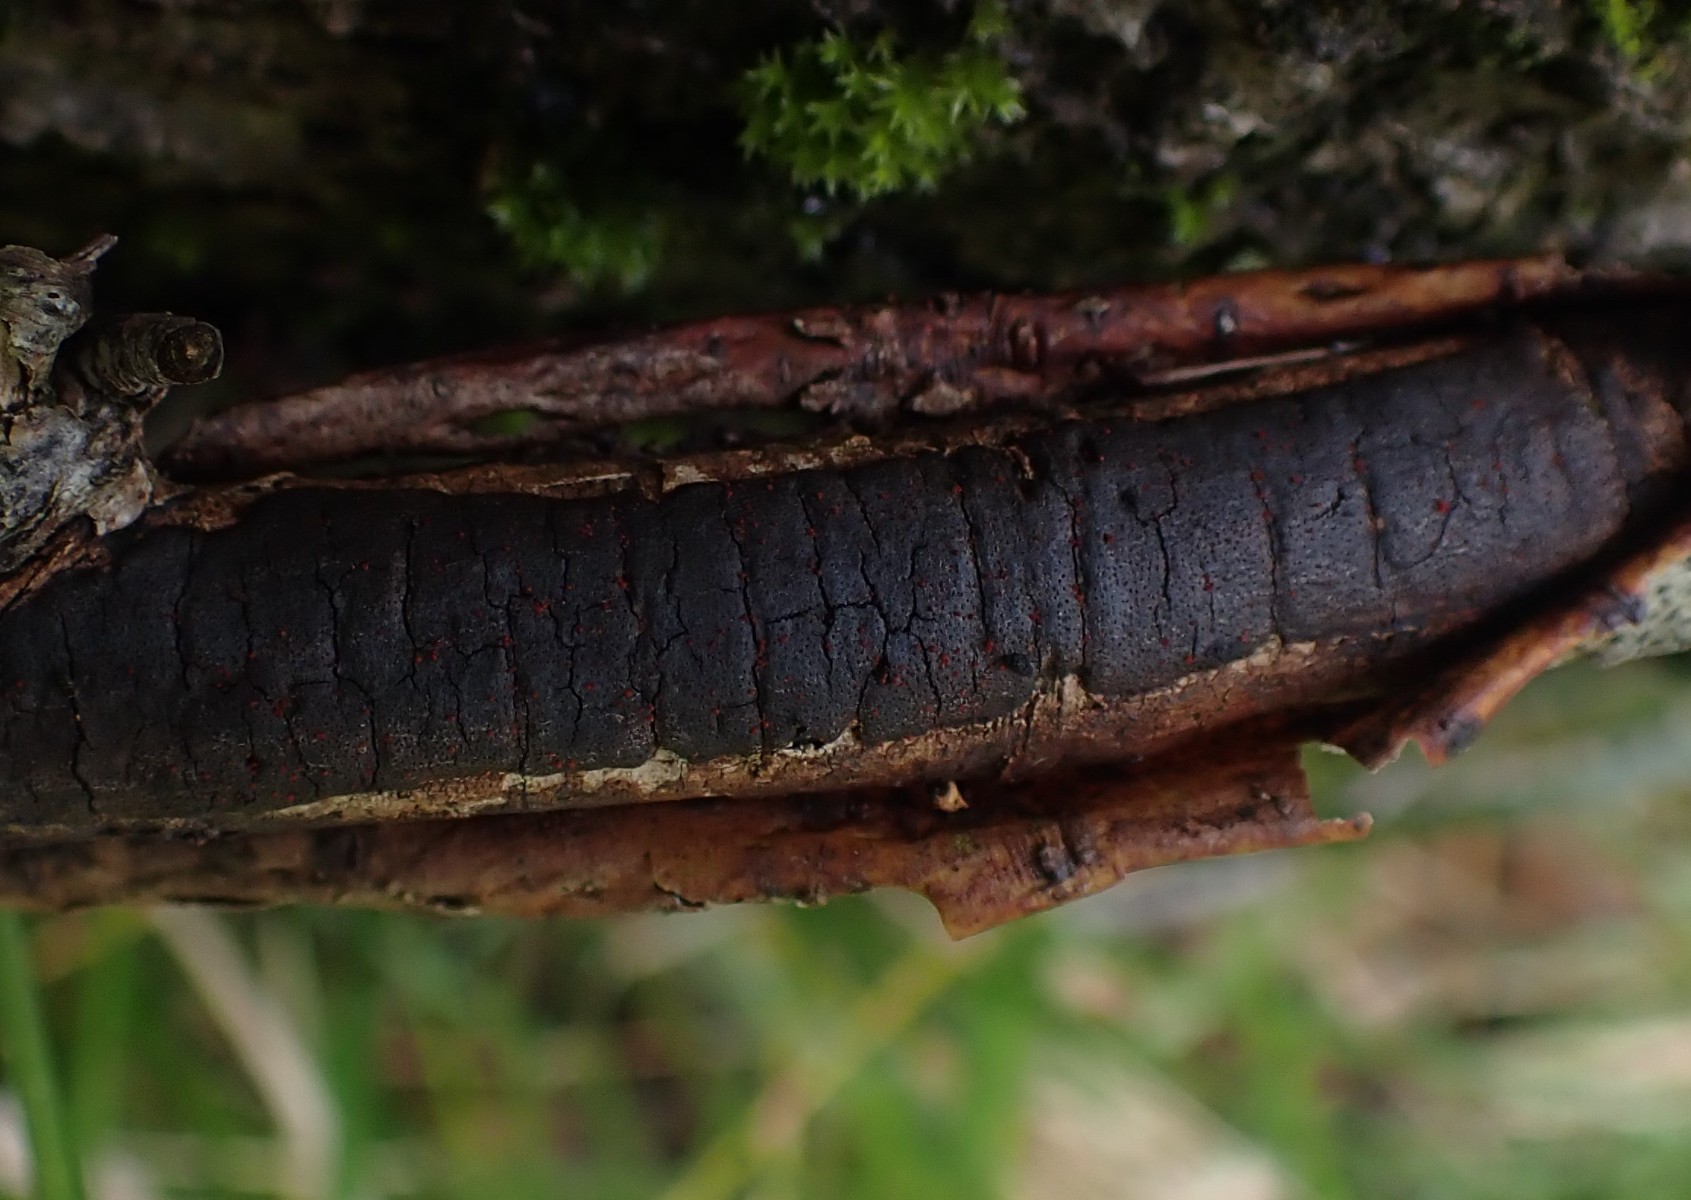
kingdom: Fungi
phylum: Ascomycota
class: Sordariomycetes
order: Hypocreales
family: Nectriaceae
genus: Dialonectria
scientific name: Dialonectria episphaeria
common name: kulskorpe-cinnobersvamp
